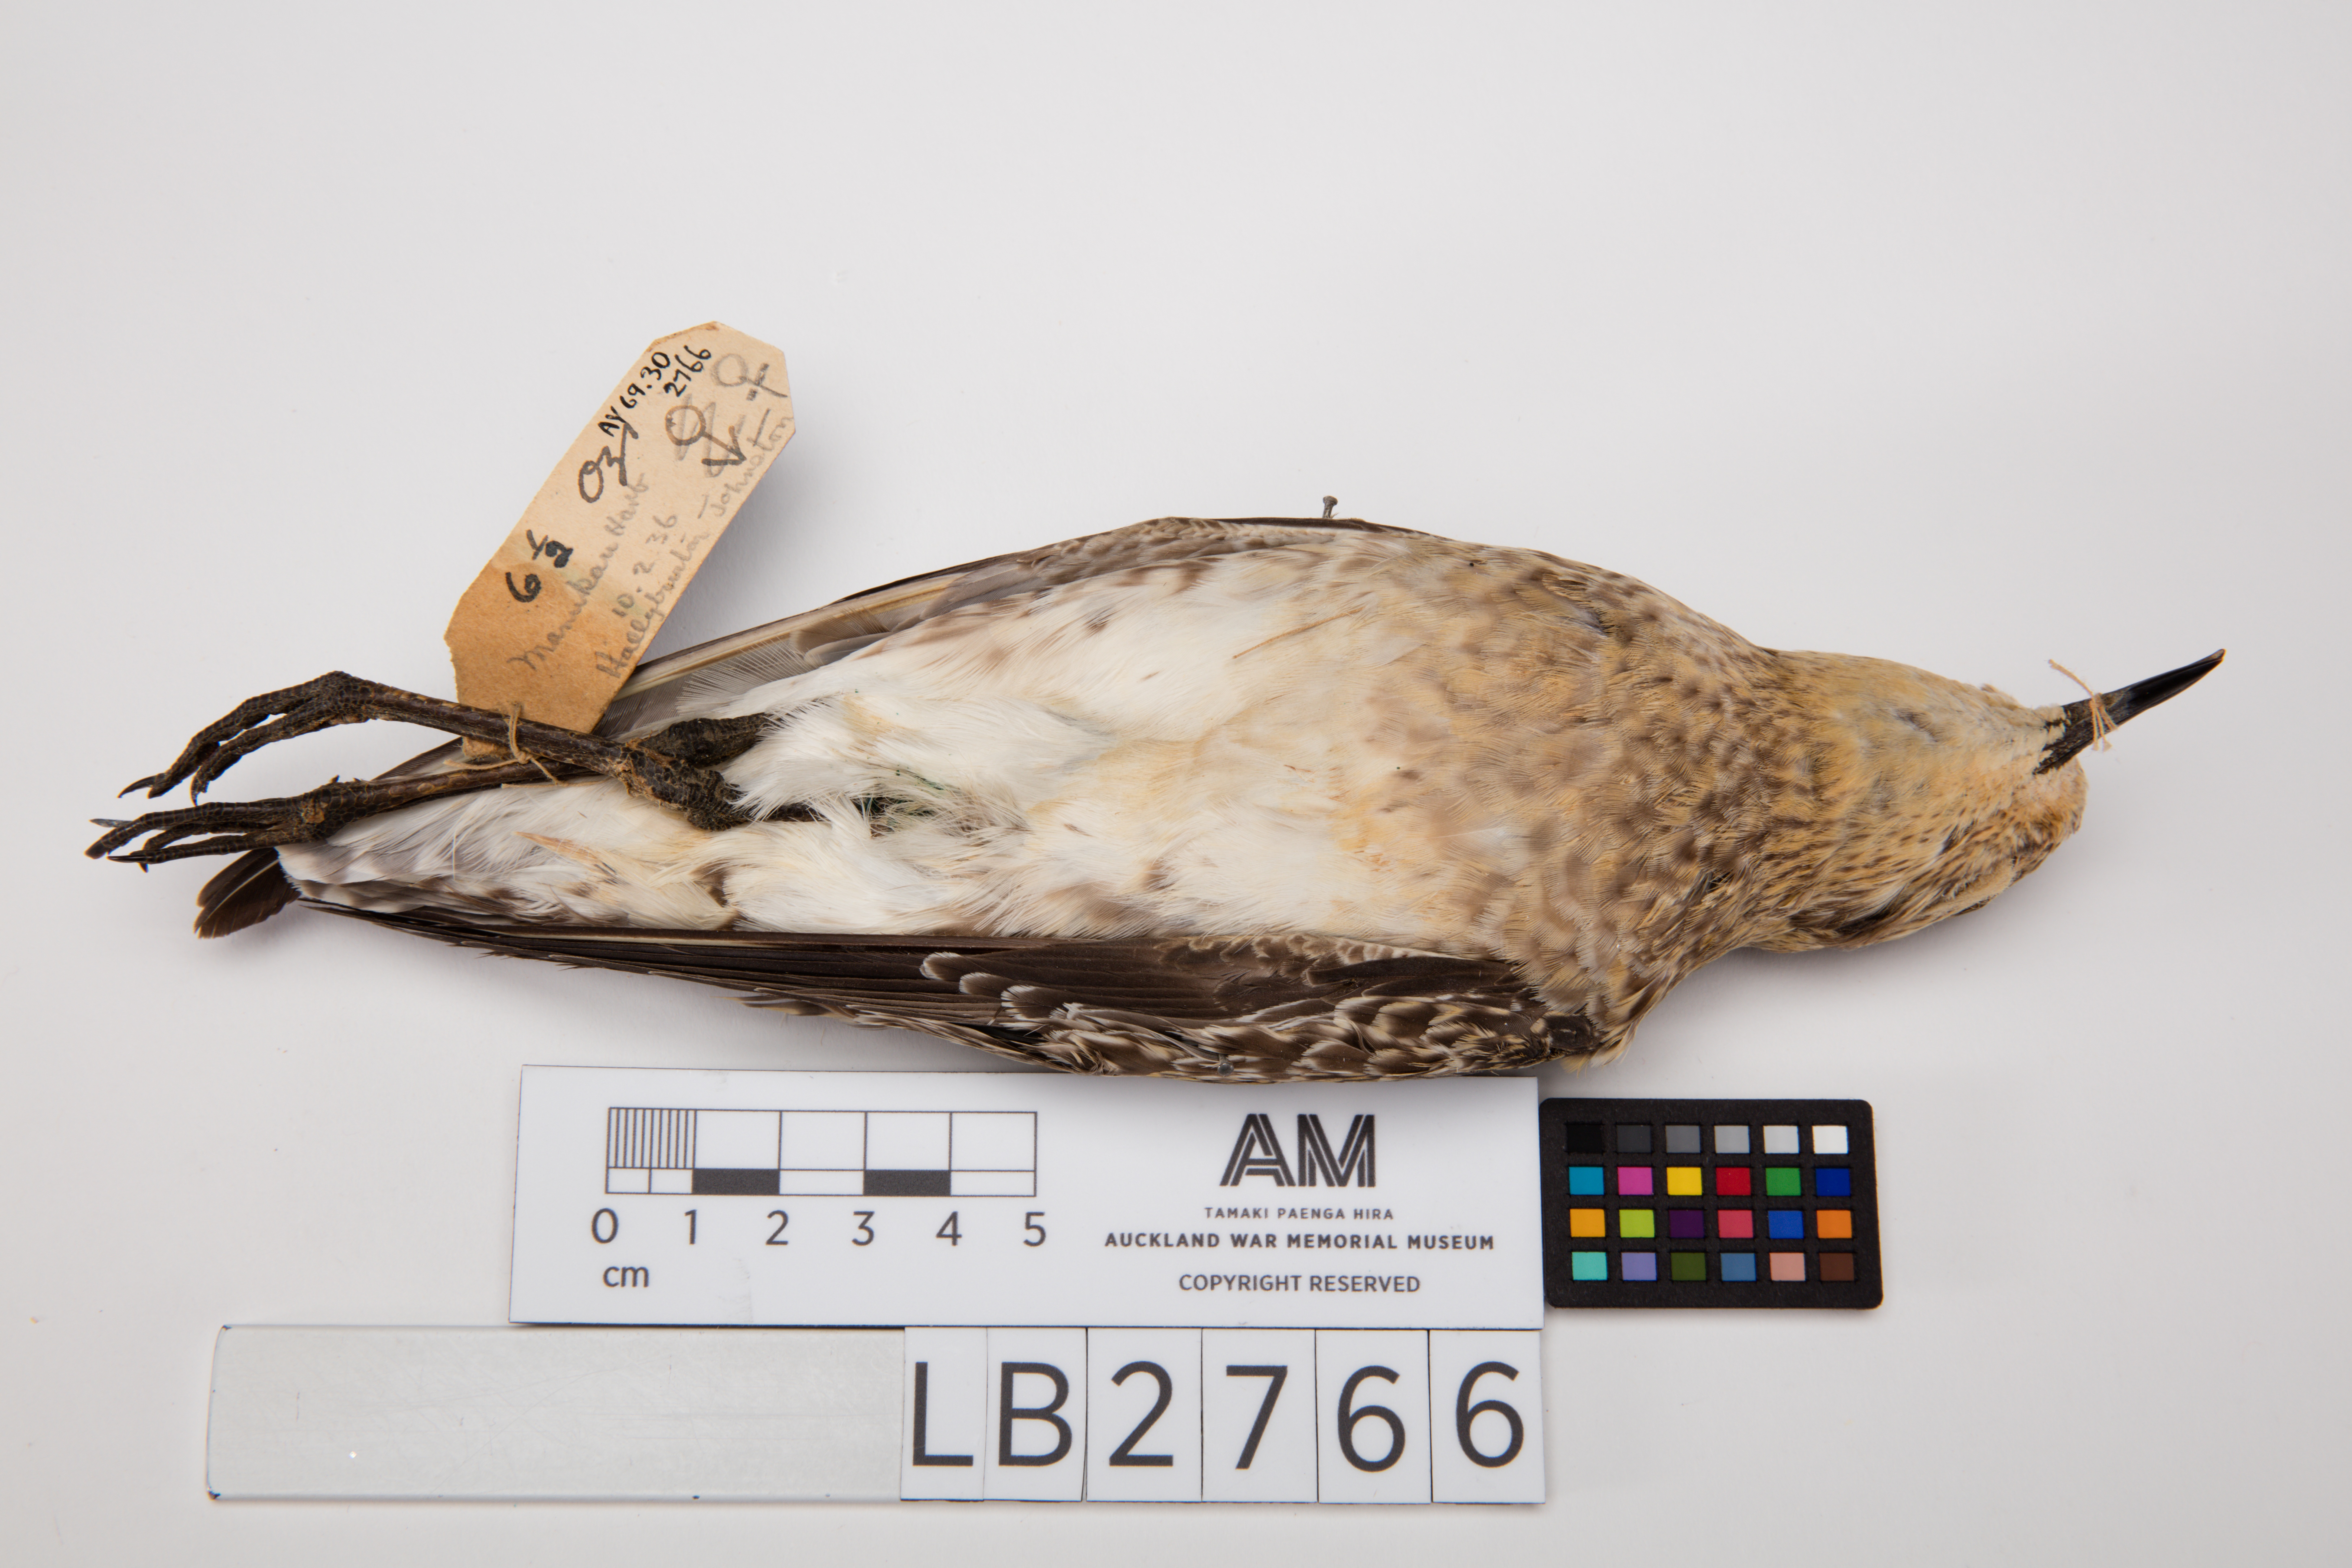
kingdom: Animalia
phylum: Chordata
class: Aves
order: Charadriiformes
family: Charadriidae
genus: Pluvialis
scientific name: Pluvialis fulva
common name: Pacific golden plover
